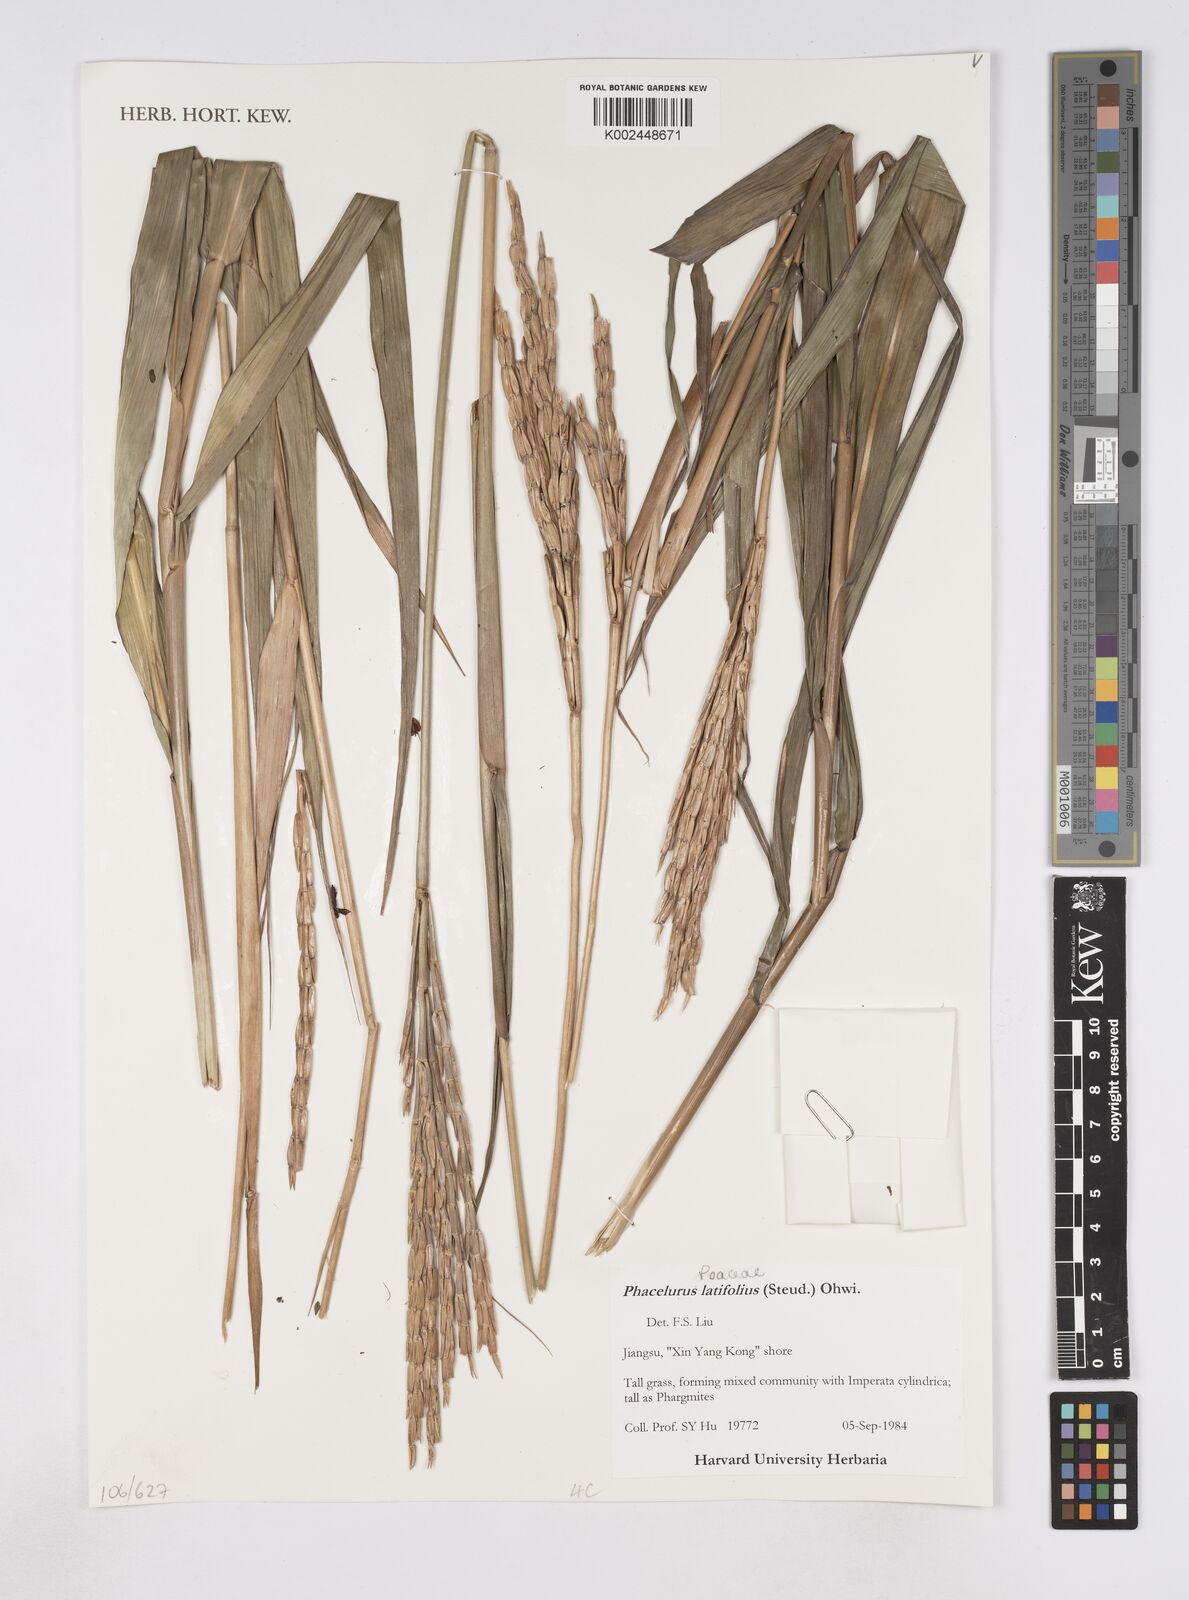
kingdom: Plantae
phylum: Tracheophyta
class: Liliopsida
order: Poales
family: Poaceae
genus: Phacelurus
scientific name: Phacelurus latifolius
